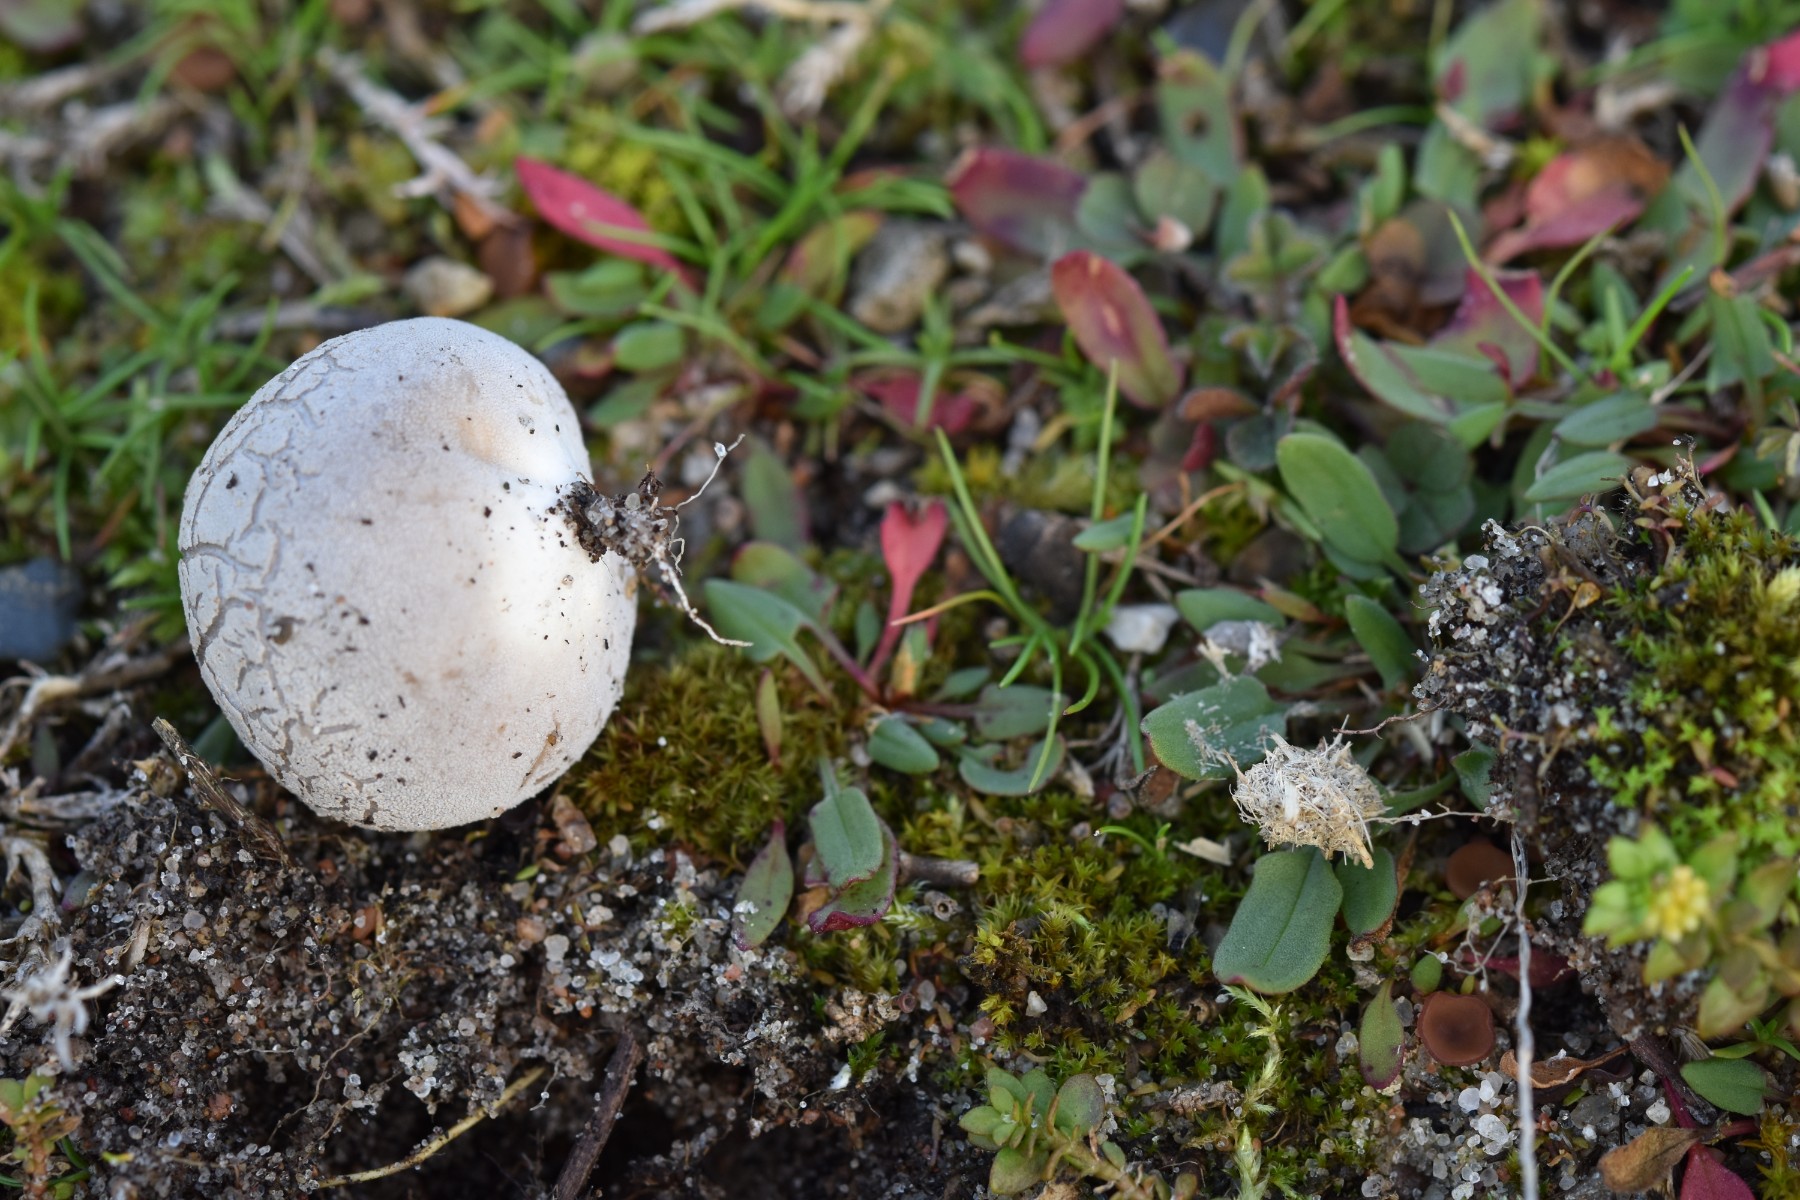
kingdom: Fungi
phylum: Basidiomycota
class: Agaricomycetes
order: Agaricales
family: Lycoperdaceae
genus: Bovista
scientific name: Bovista plumbea
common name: blygrå bovist
